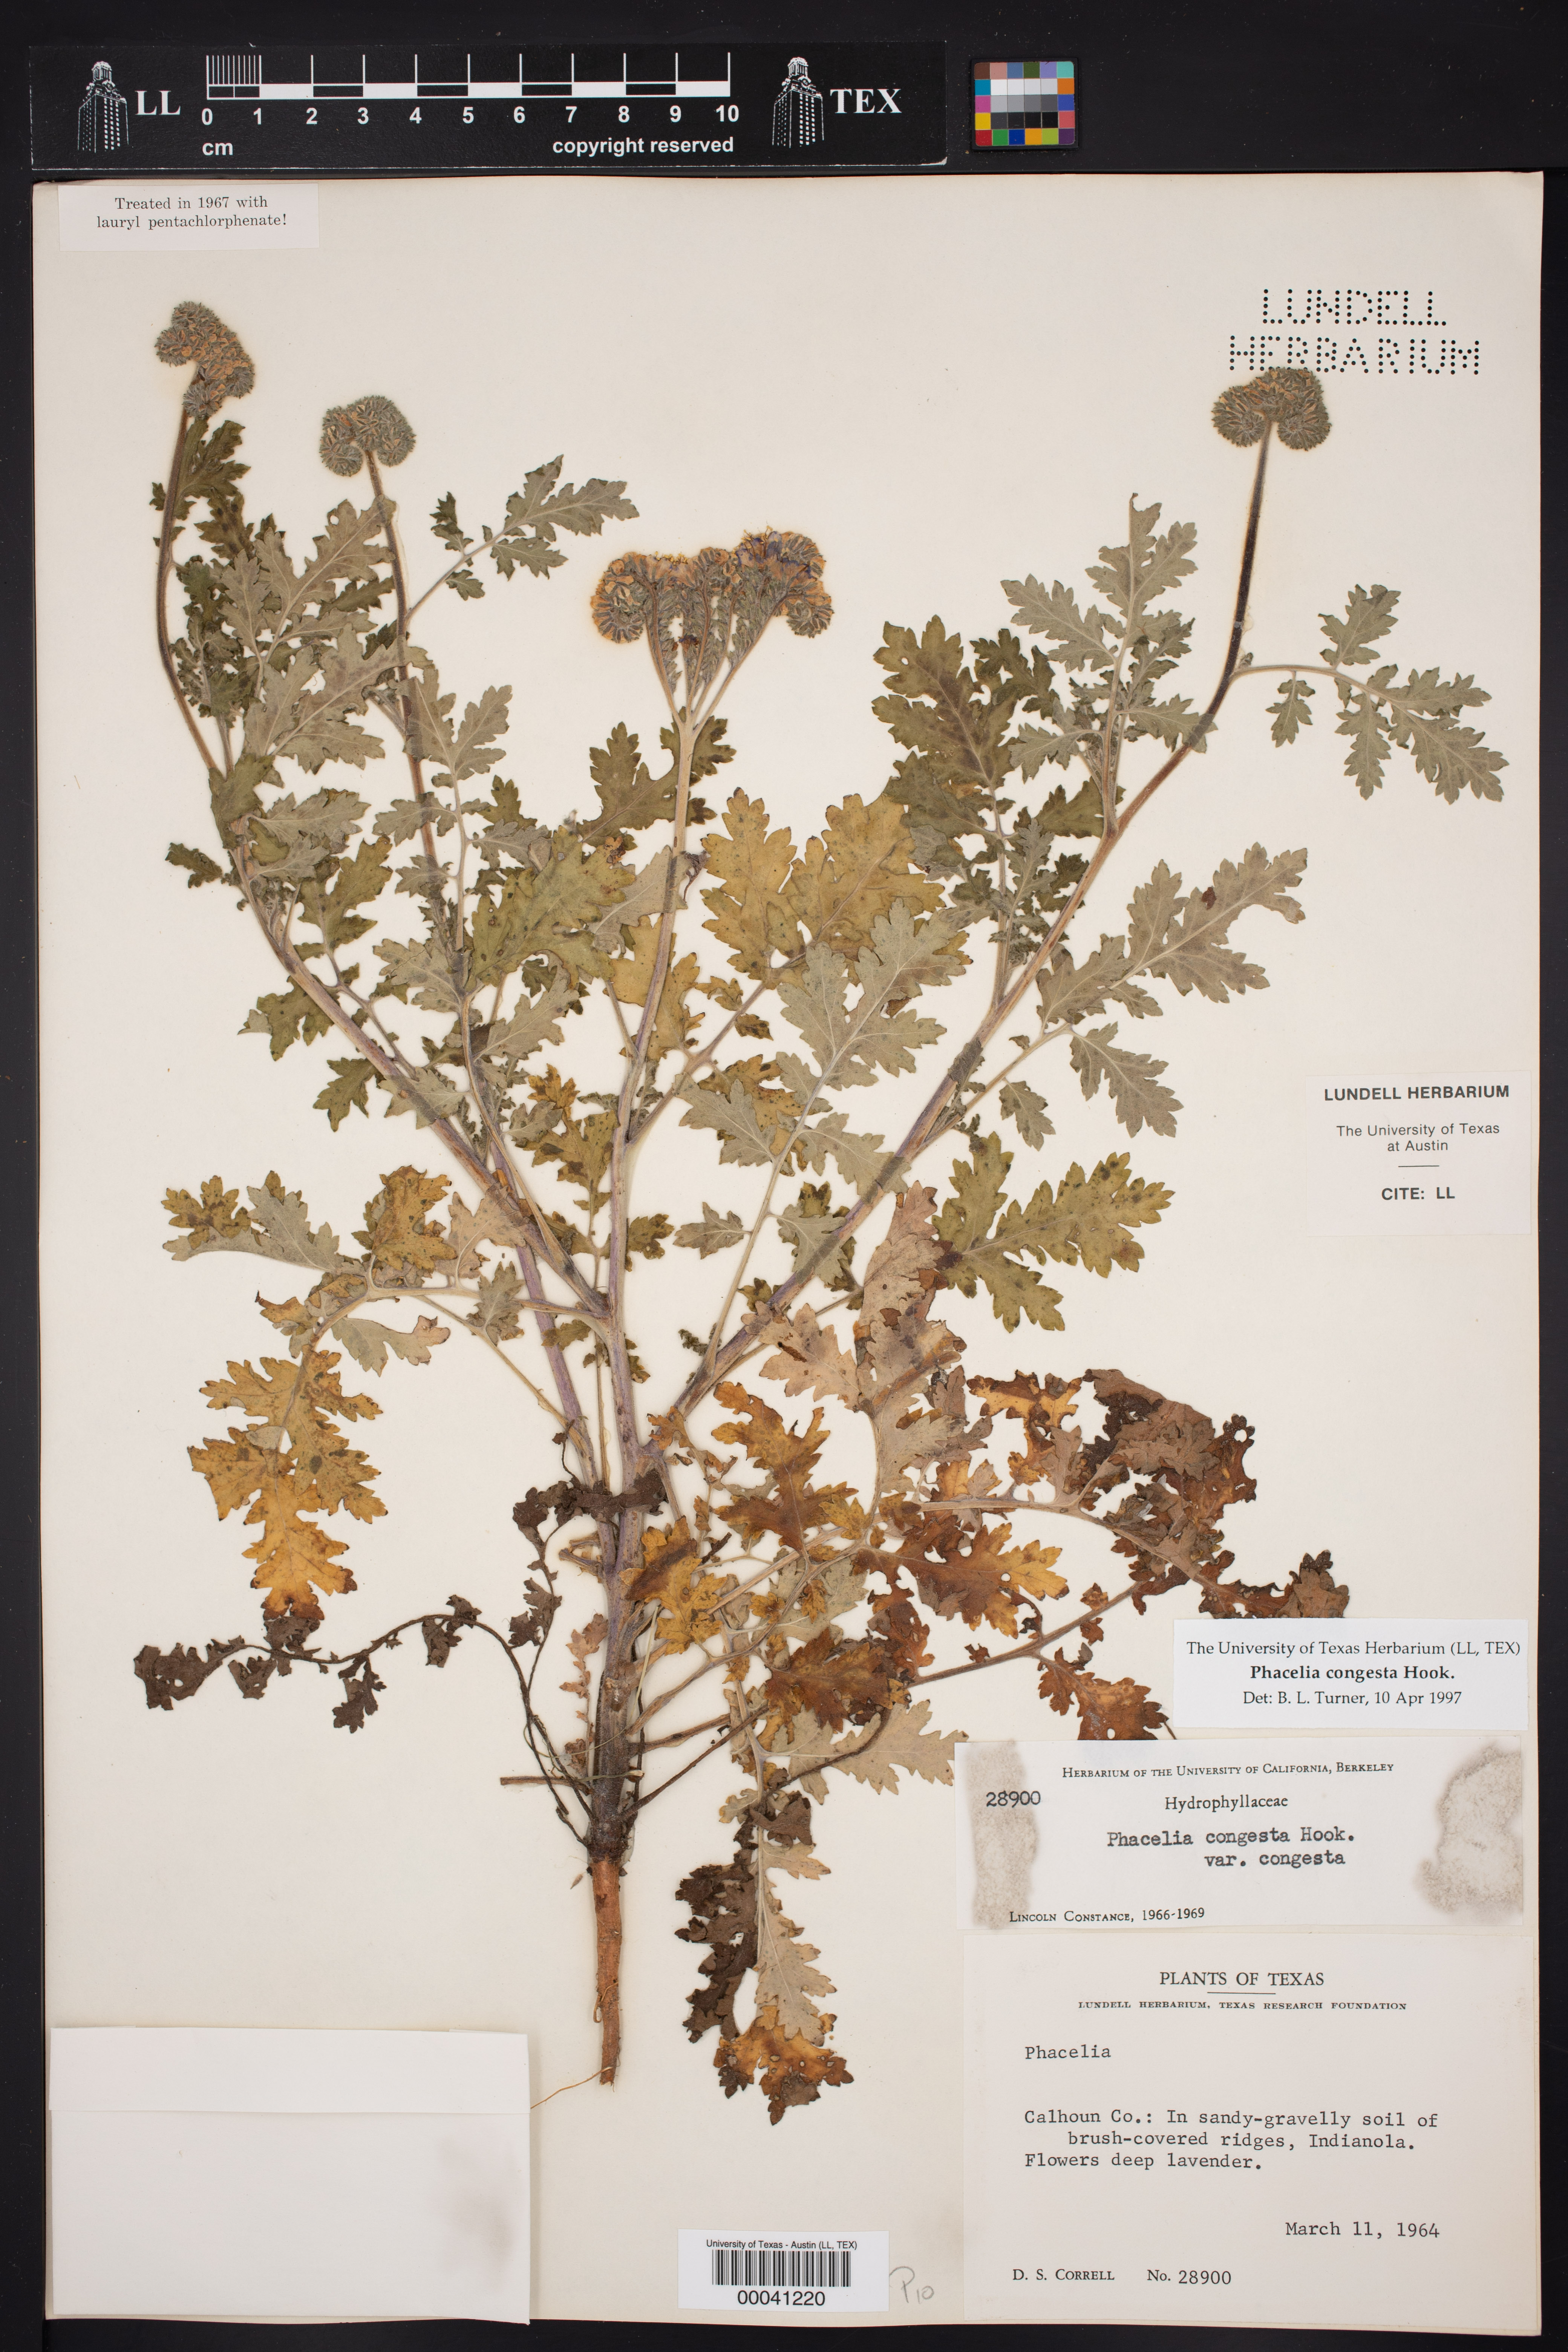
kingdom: Plantae
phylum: Tracheophyta
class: Magnoliopsida
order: Boraginales
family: Hydrophyllaceae
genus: Phacelia
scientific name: Phacelia congesta
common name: Blue curls
